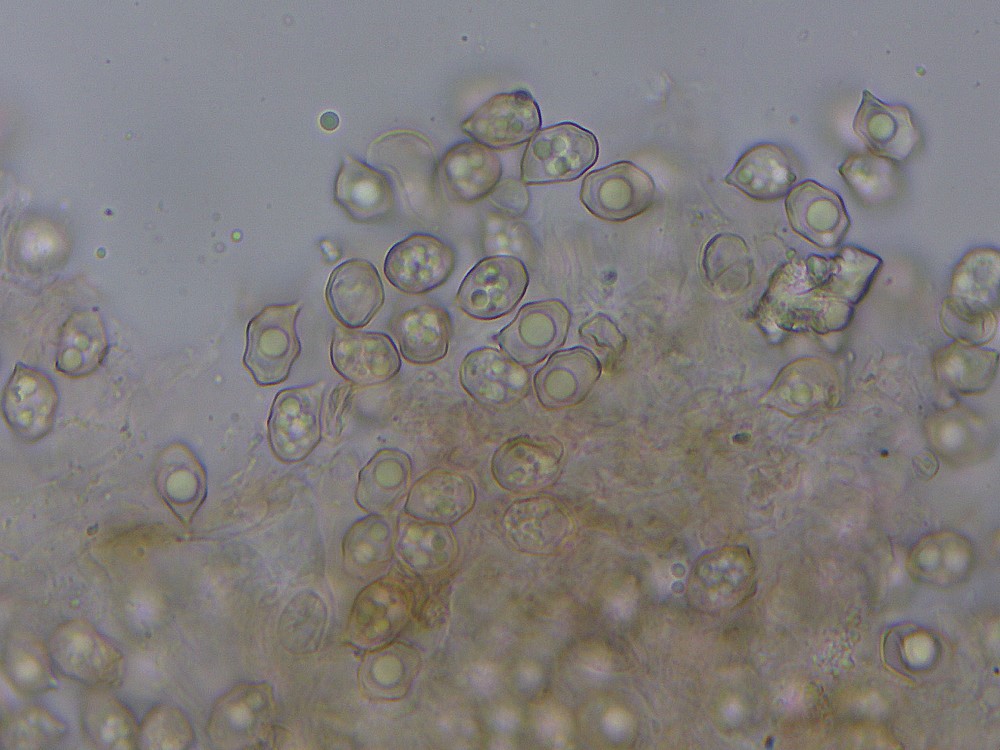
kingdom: Fungi
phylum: Basidiomycota
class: Agaricomycetes
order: Agaricales
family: Entolomataceae
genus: Entoloma
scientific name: Entoloma
